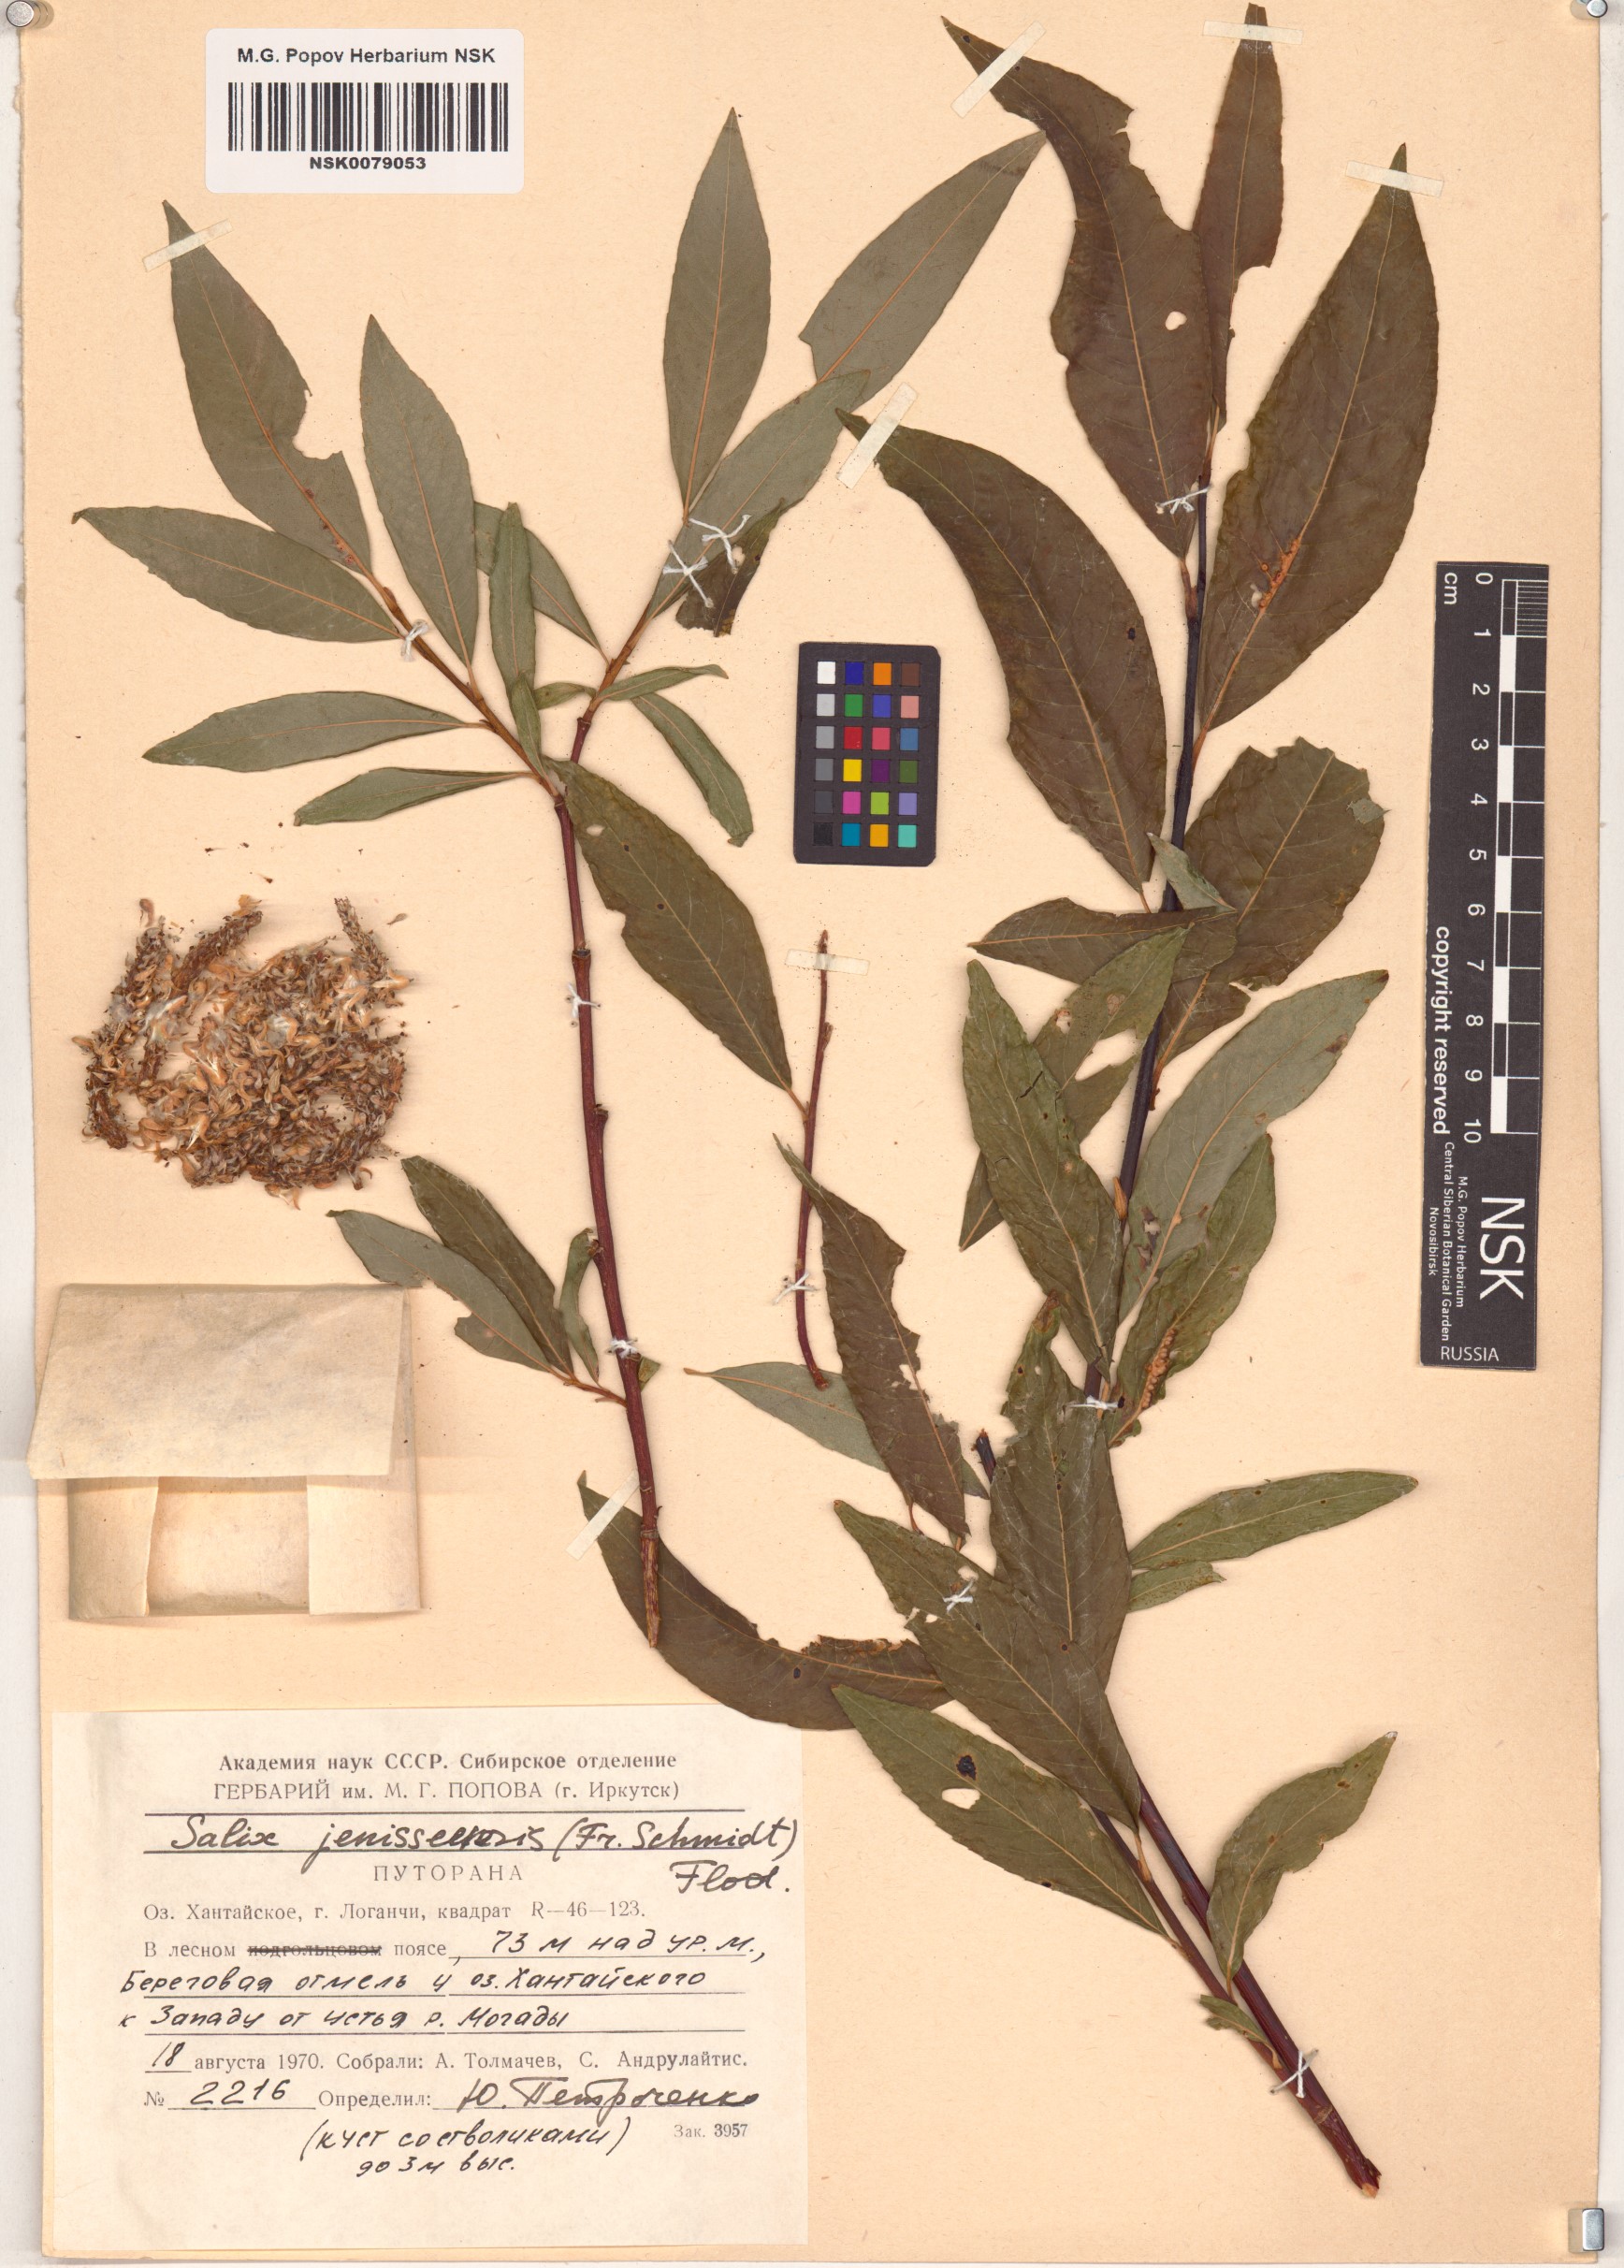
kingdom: Plantae
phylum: Tracheophyta
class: Magnoliopsida
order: Malpighiales
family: Salicaceae
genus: Salix
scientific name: Salix jenisseensis
